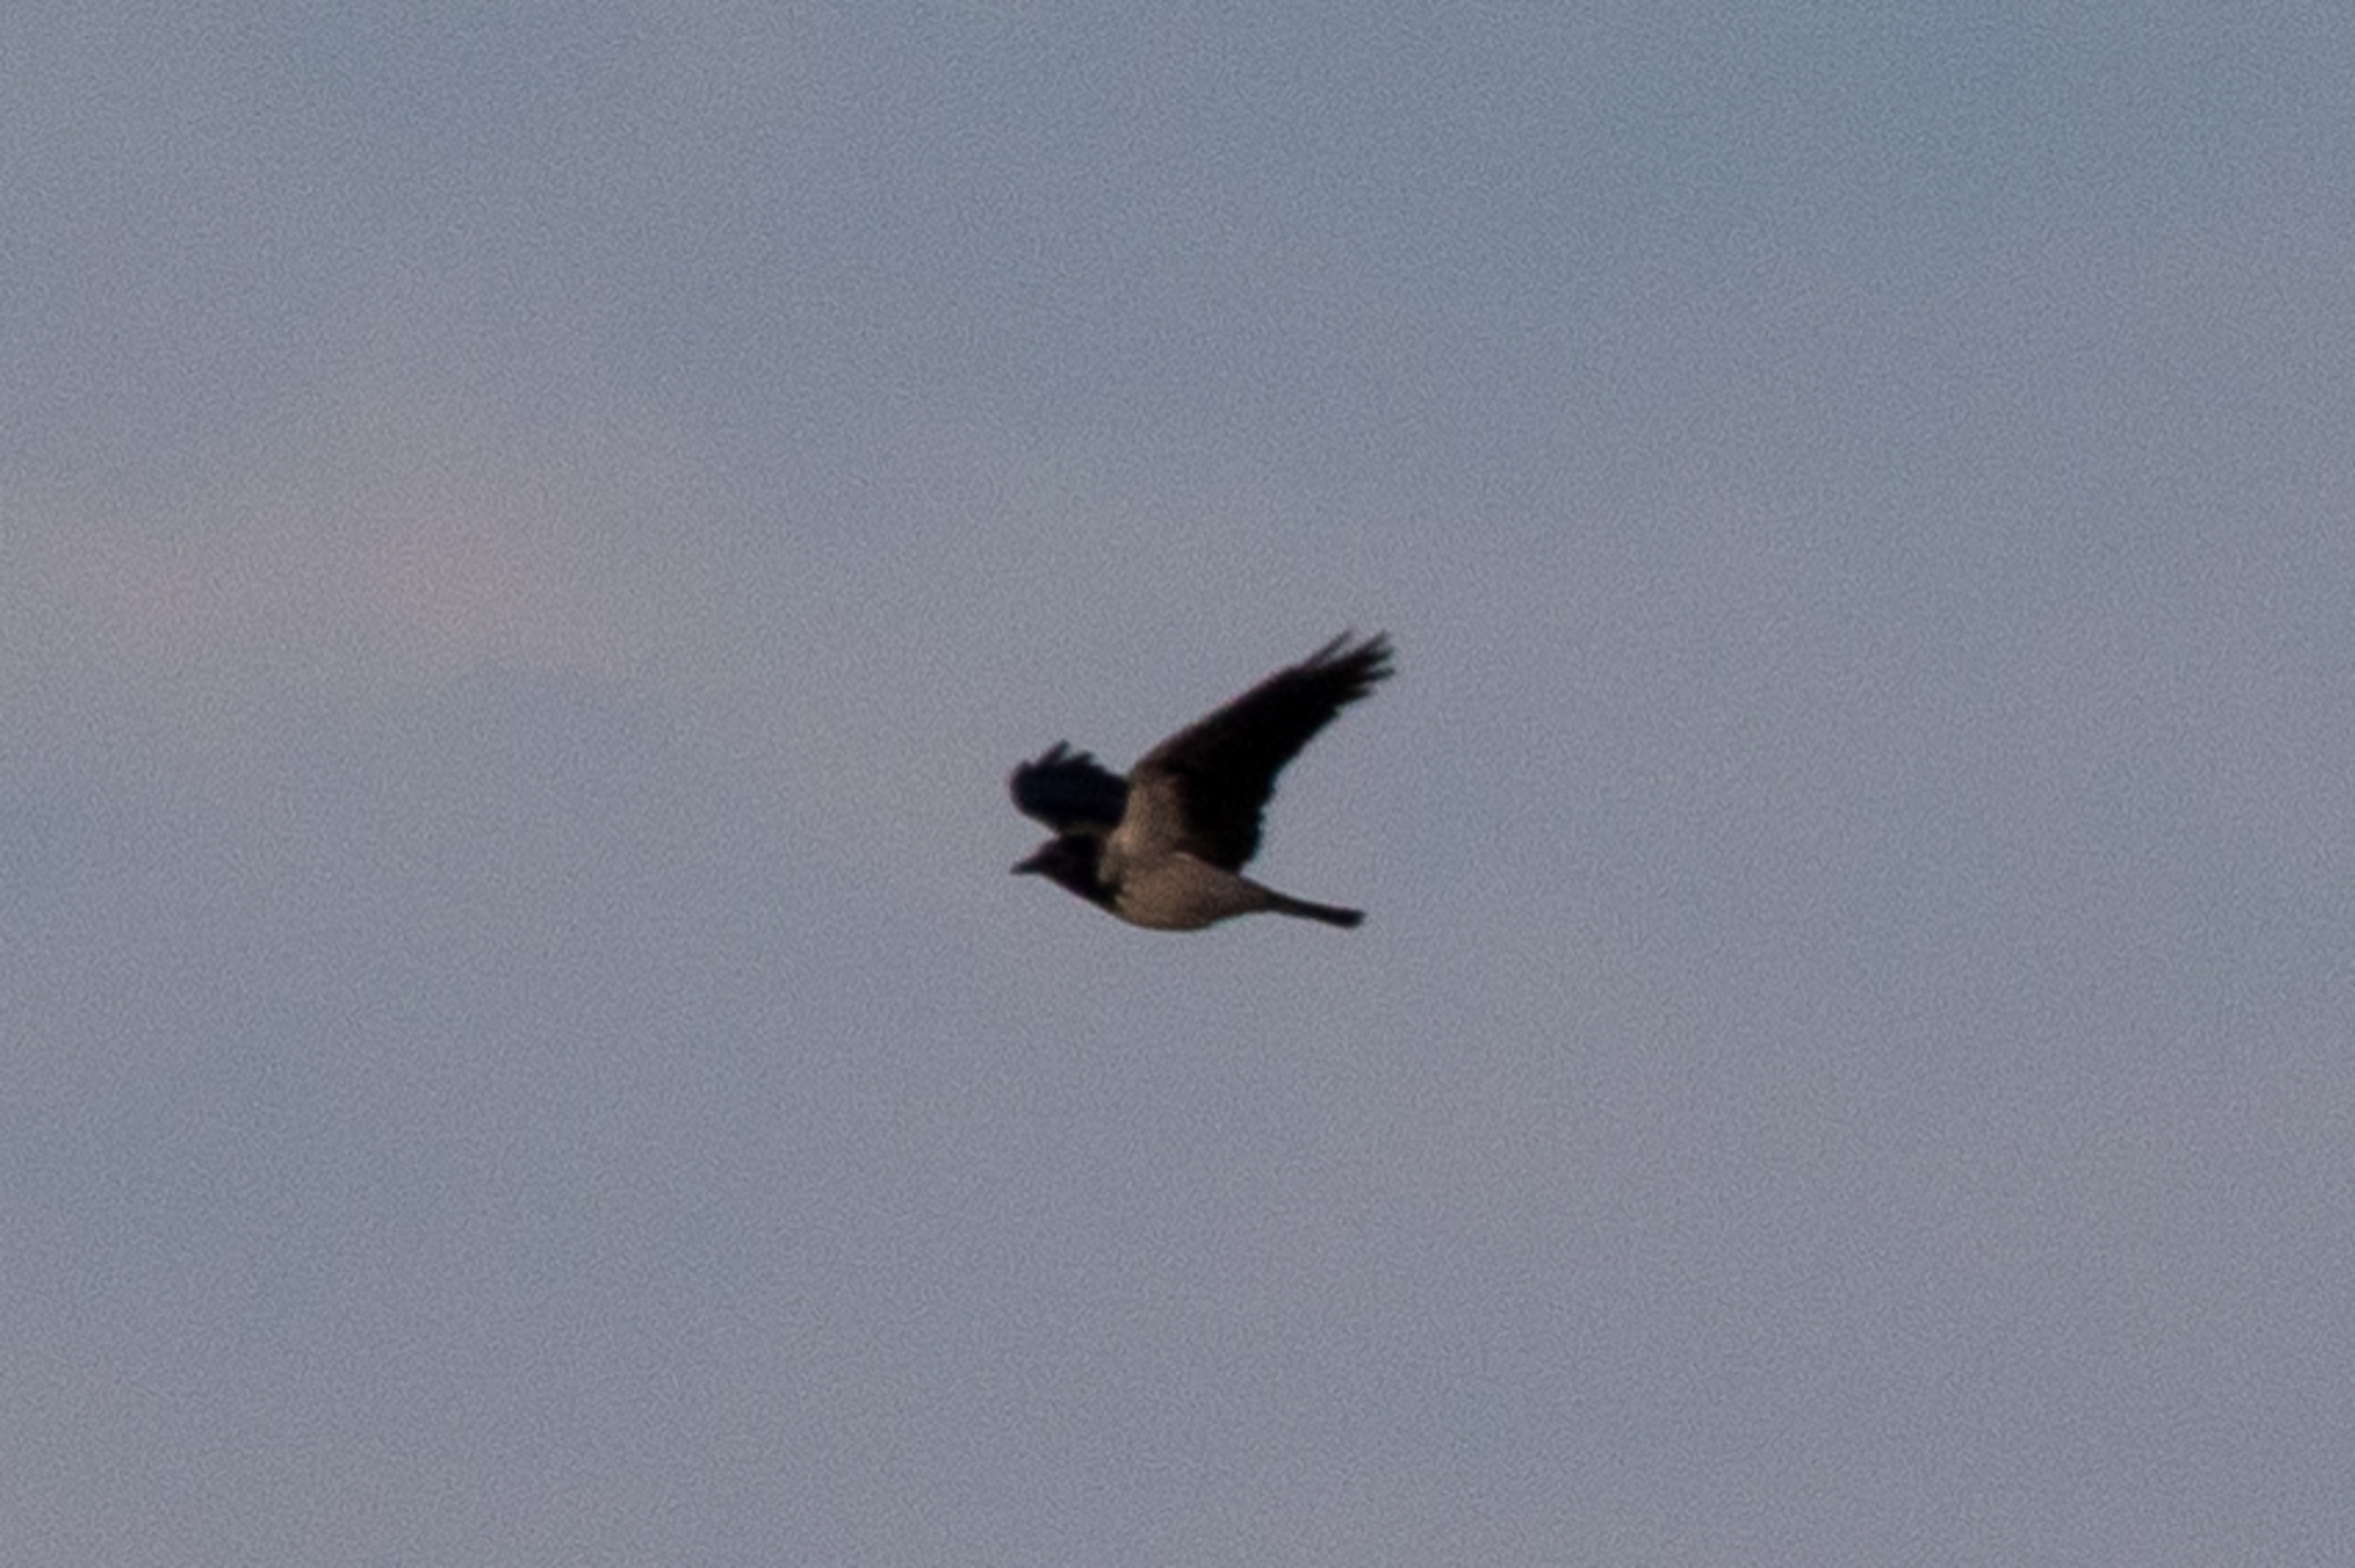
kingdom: Animalia
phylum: Chordata
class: Aves
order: Passeriformes
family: Corvidae
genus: Corvus
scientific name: Corvus cornix
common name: Gråkrage
